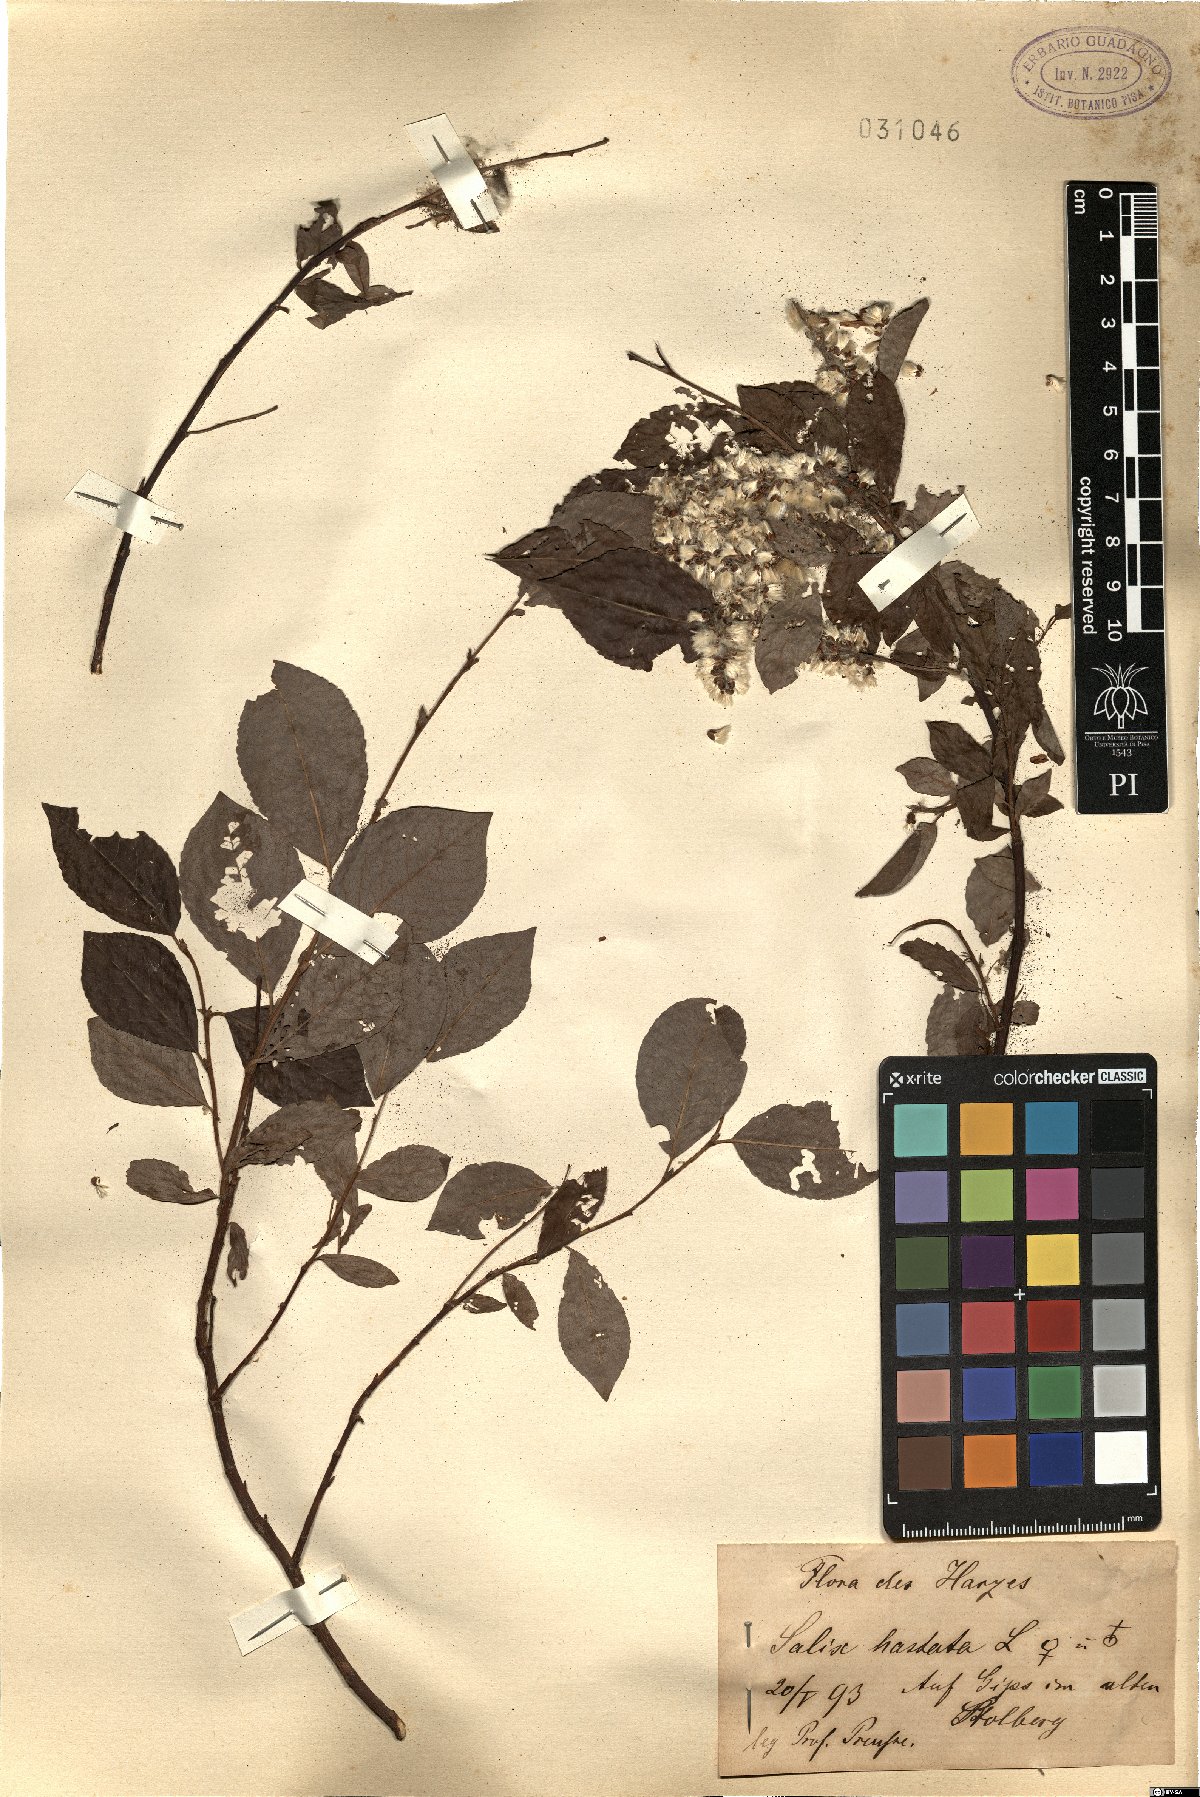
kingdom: Plantae
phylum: Tracheophyta
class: Magnoliopsida
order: Malpighiales
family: Salicaceae
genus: Salix
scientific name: Salix hastata
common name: Halberd willow
